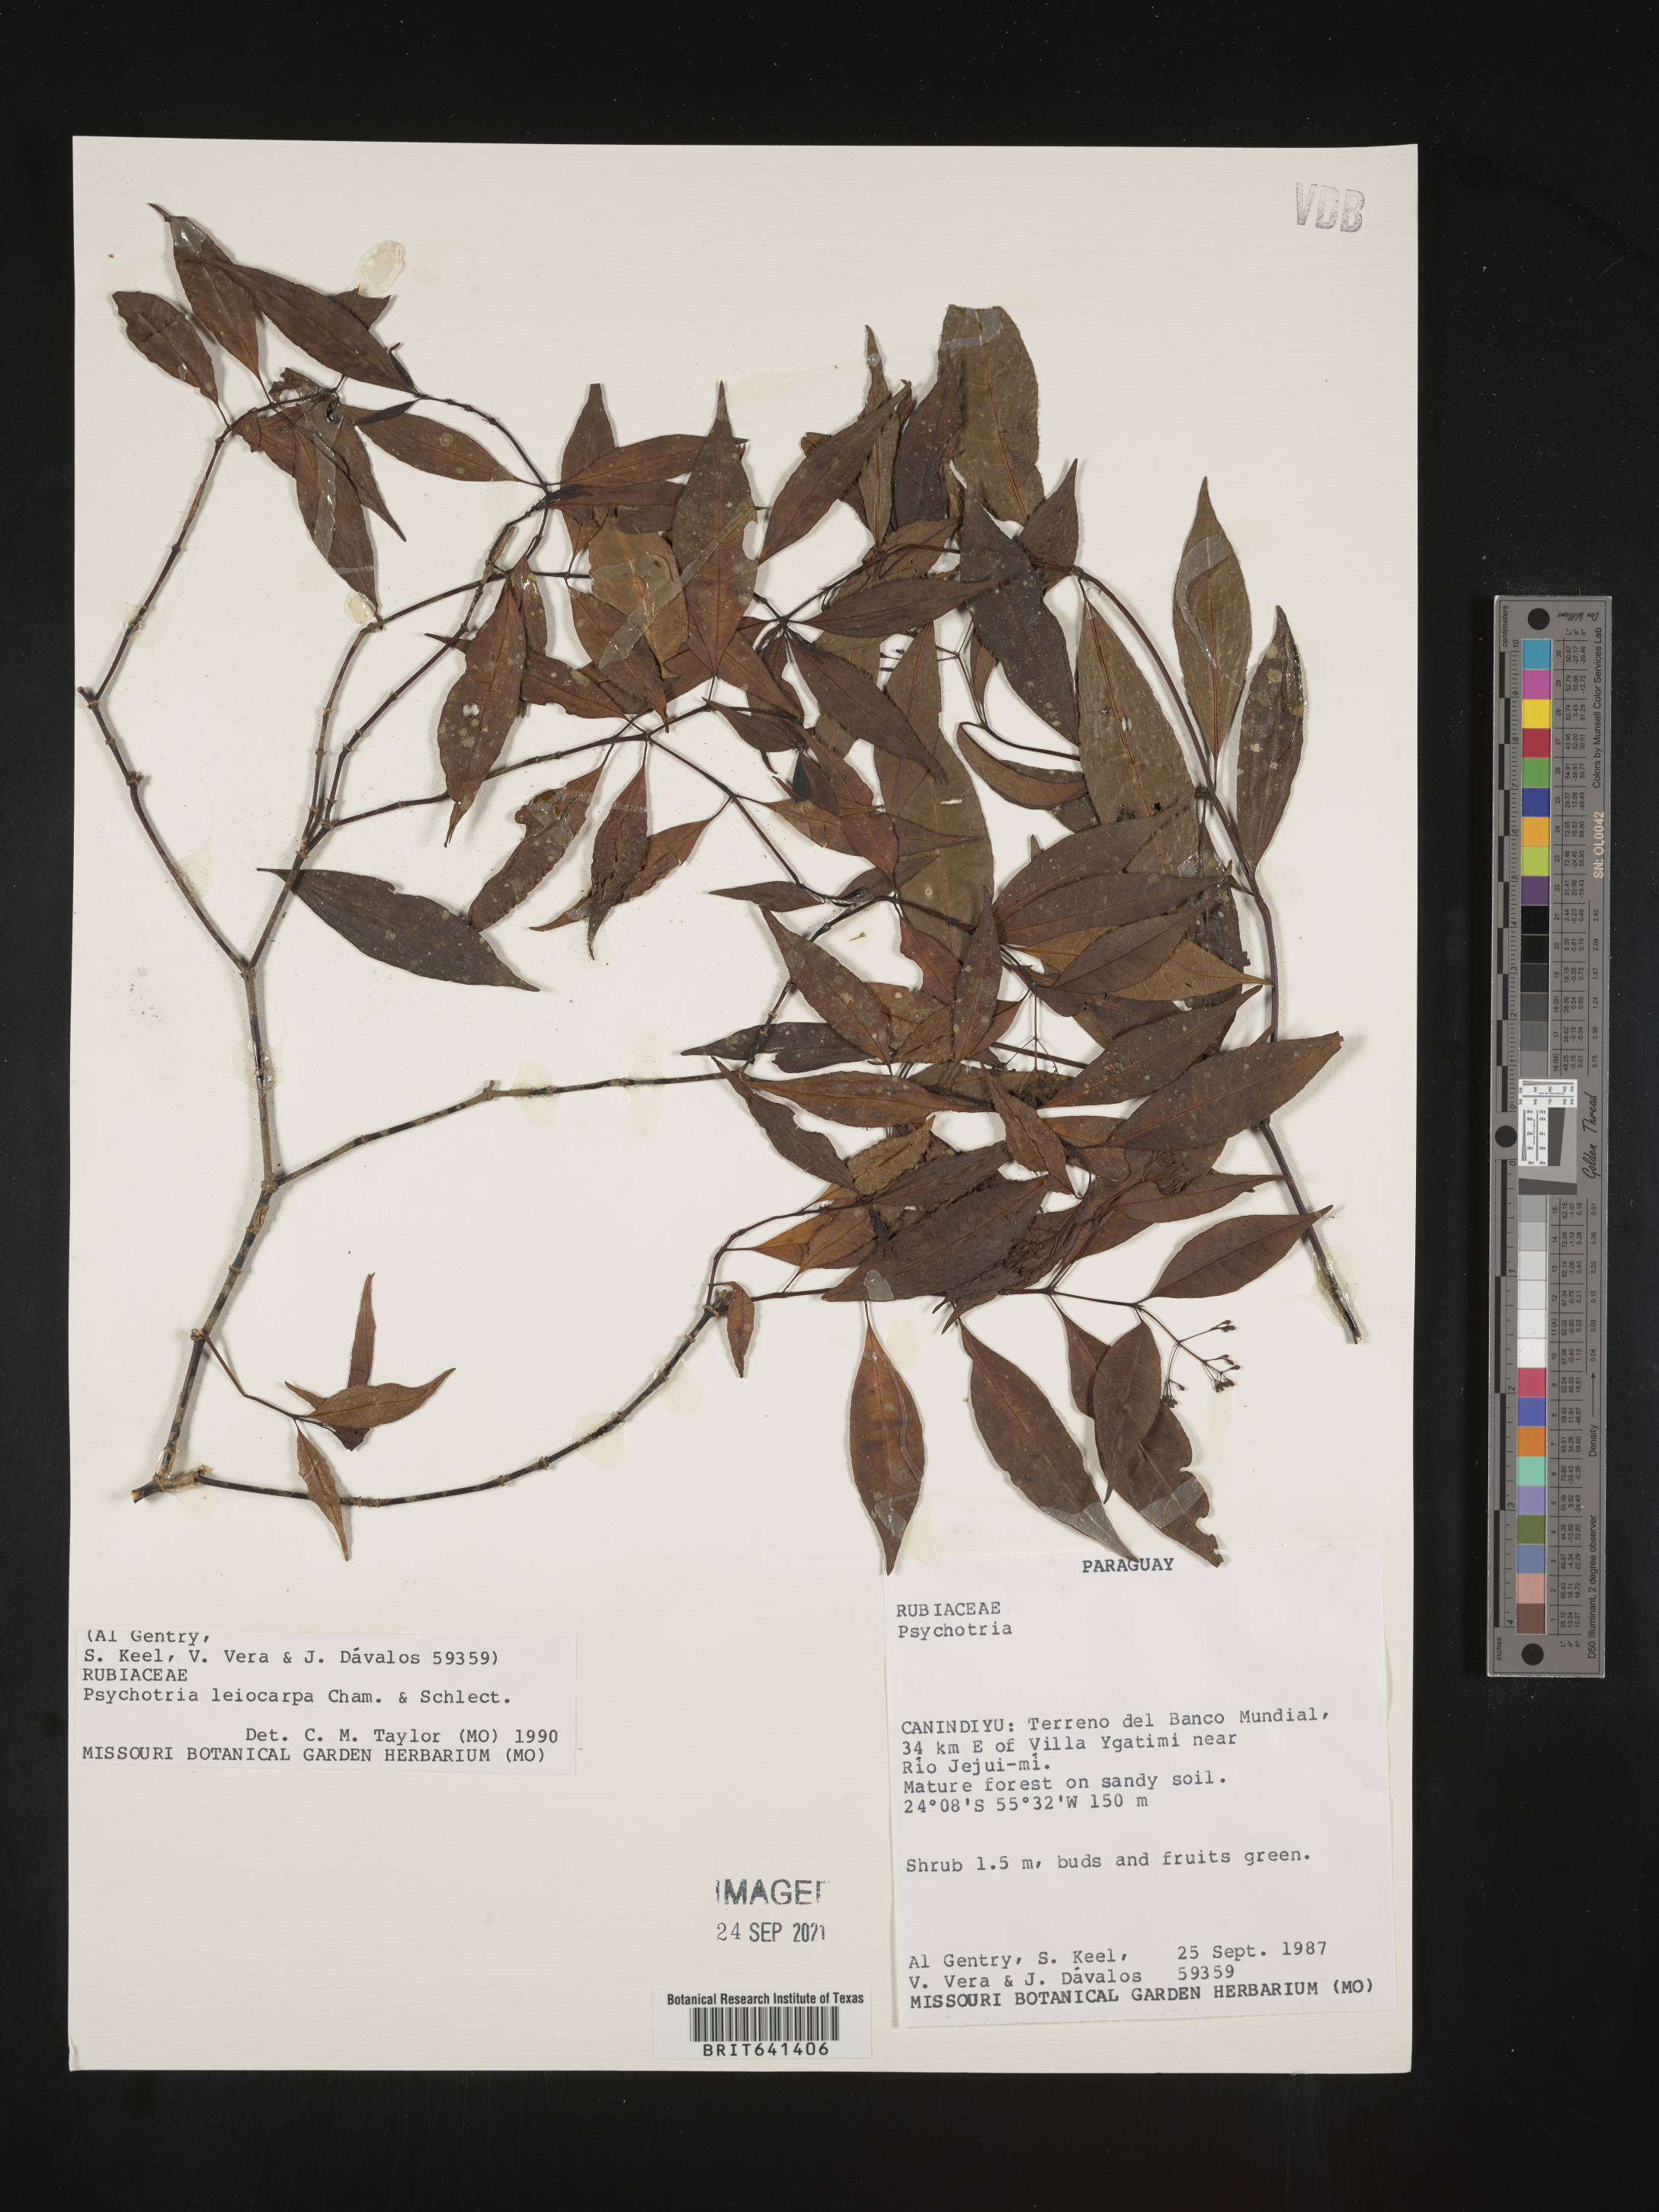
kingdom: Plantae
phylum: Tracheophyta
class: Magnoliopsida
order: Gentianales
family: Rubiaceae
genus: Psychotria
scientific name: Psychotria
